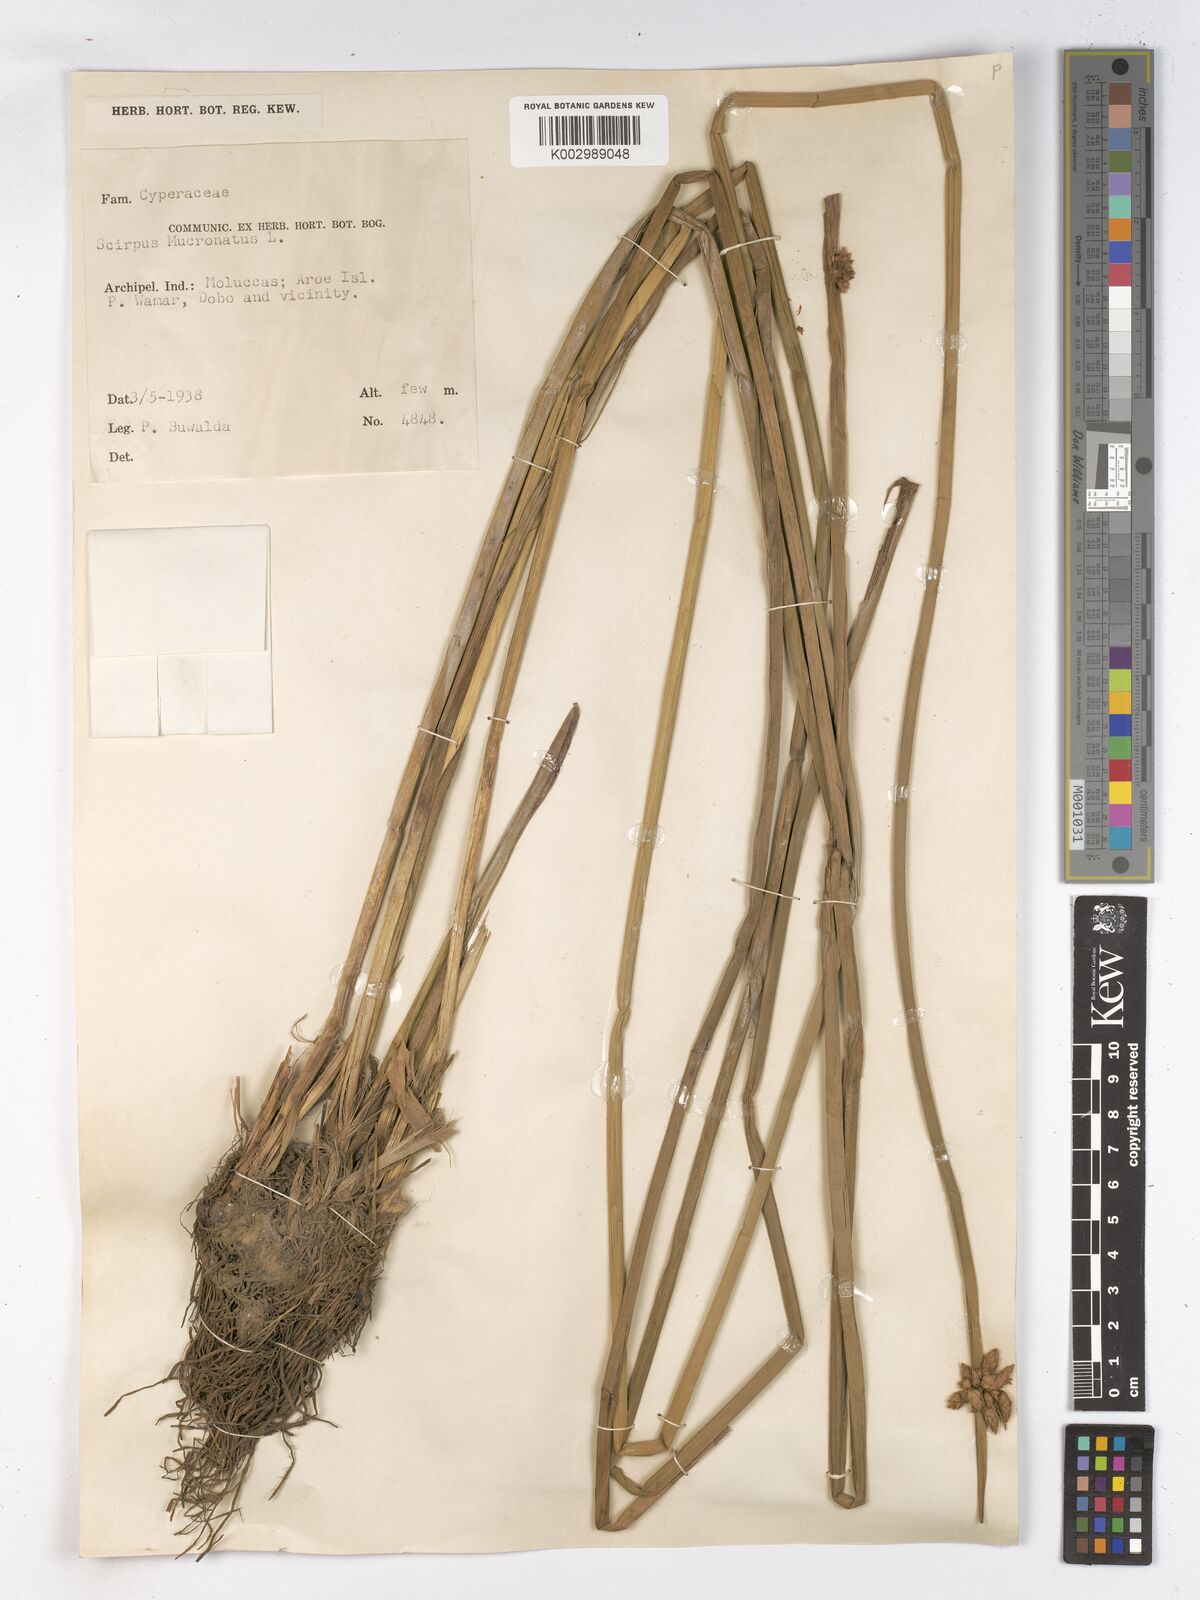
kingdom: Plantae
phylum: Tracheophyta
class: Liliopsida
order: Poales
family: Cyperaceae
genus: Schoenoplectiella
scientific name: Schoenoplectiella mucronata
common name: Bog bulrush
